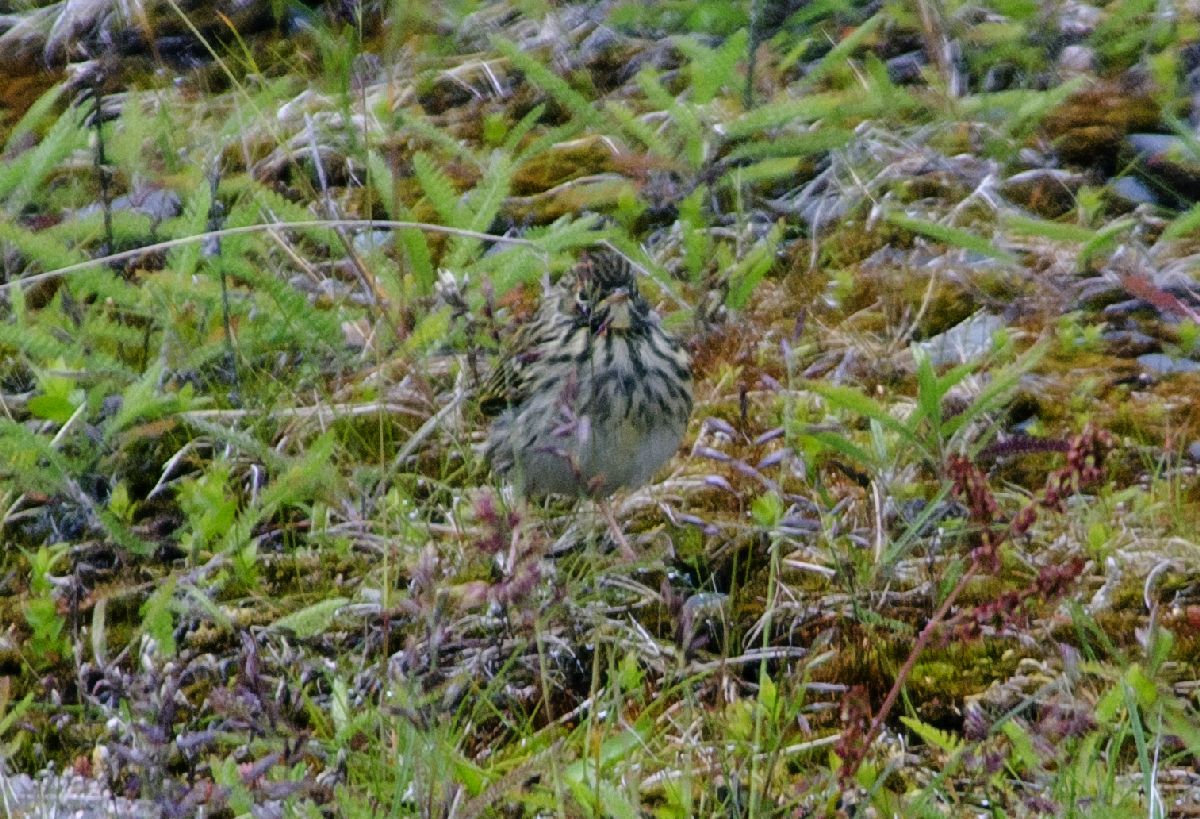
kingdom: Animalia
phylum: Chordata
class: Aves
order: Passeriformes
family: Motacillidae
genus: Anthus
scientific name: Anthus pratensis
